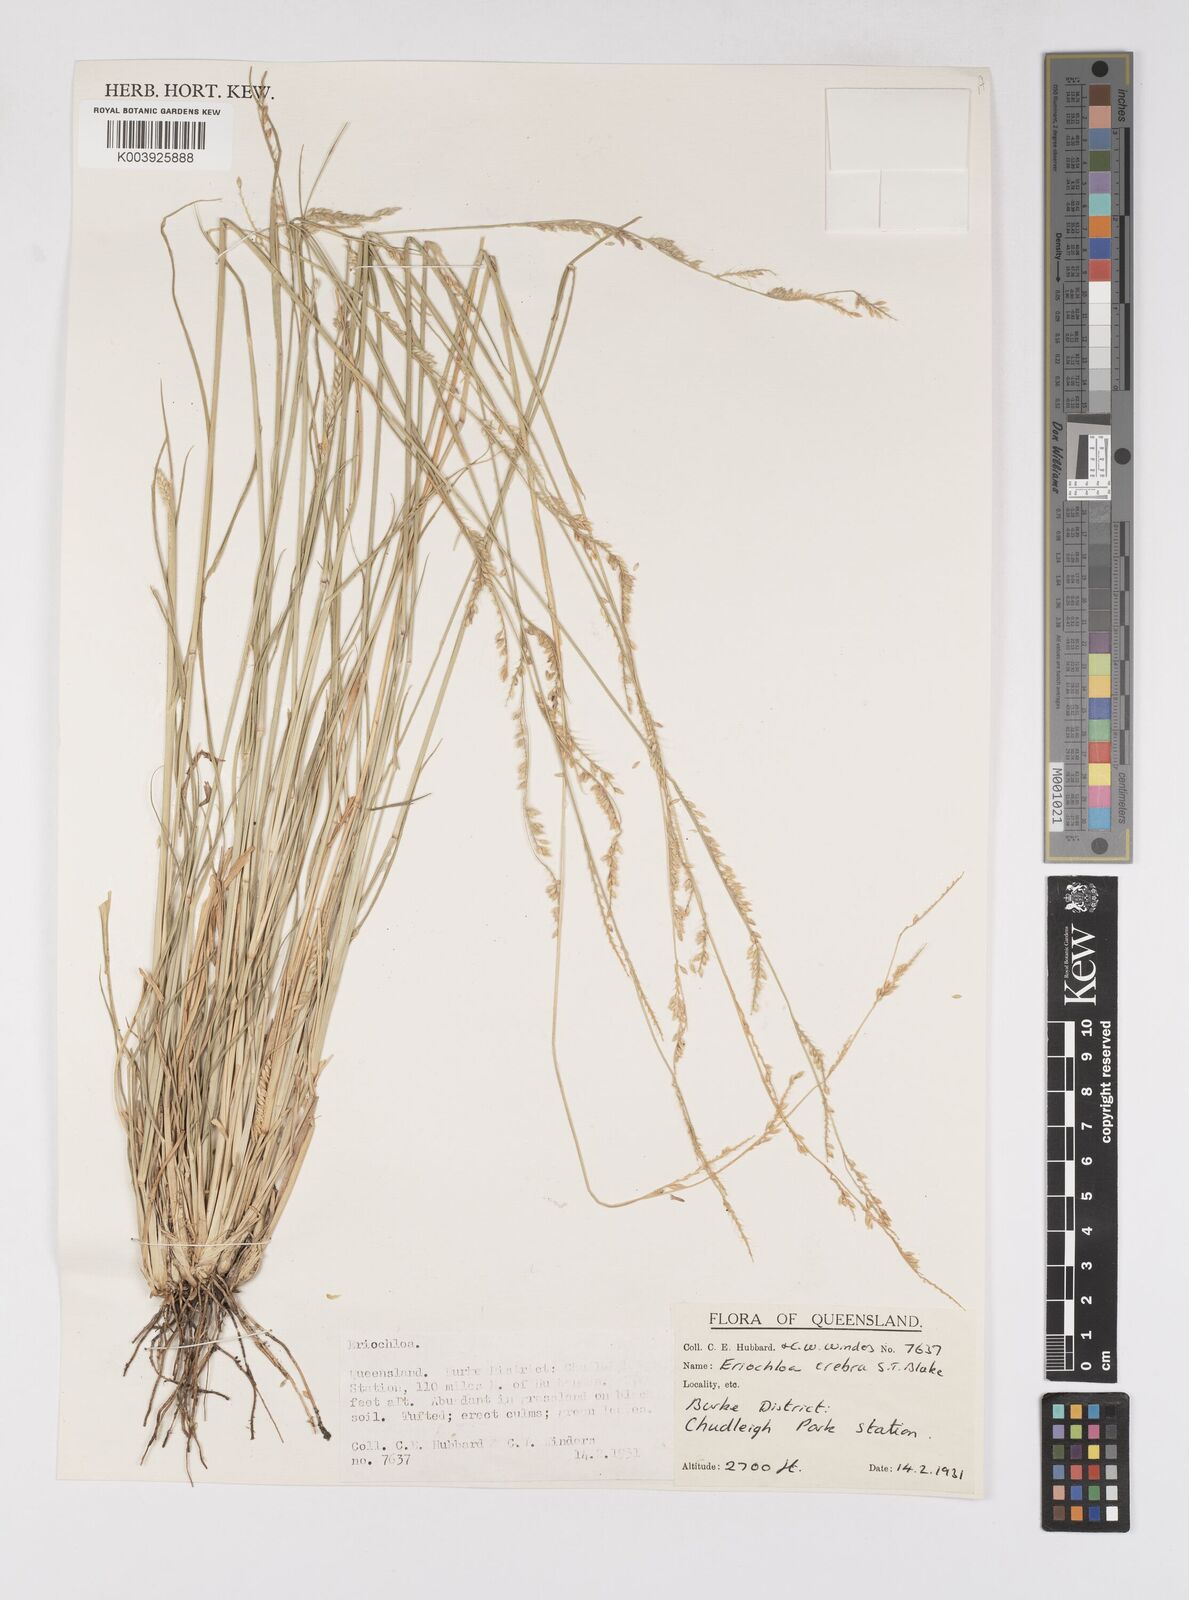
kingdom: Plantae
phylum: Tracheophyta
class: Liliopsida
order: Poales
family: Poaceae
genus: Eriochloa
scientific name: Eriochloa crebra
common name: Cup grass
